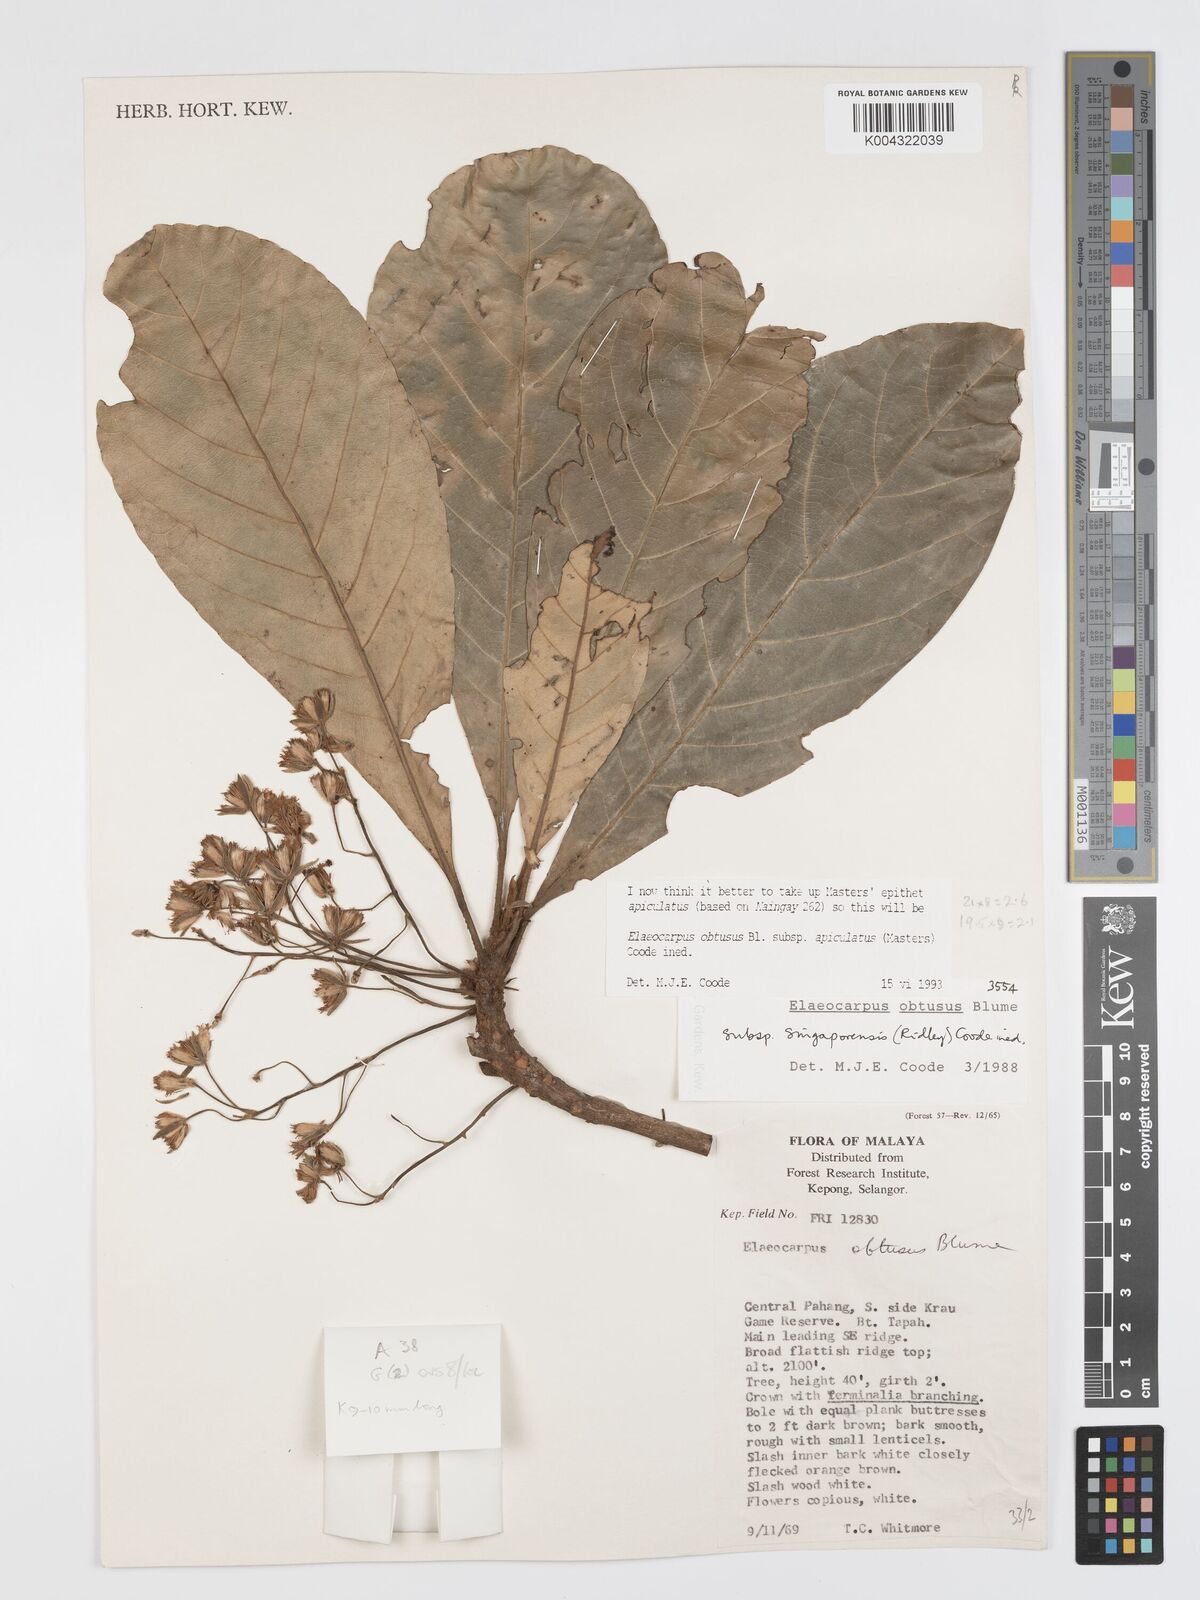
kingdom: Plantae
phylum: Tracheophyta
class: Magnoliopsida
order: Oxalidales
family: Elaeocarpaceae
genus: Elaeocarpus
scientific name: Elaeocarpus obtusus
